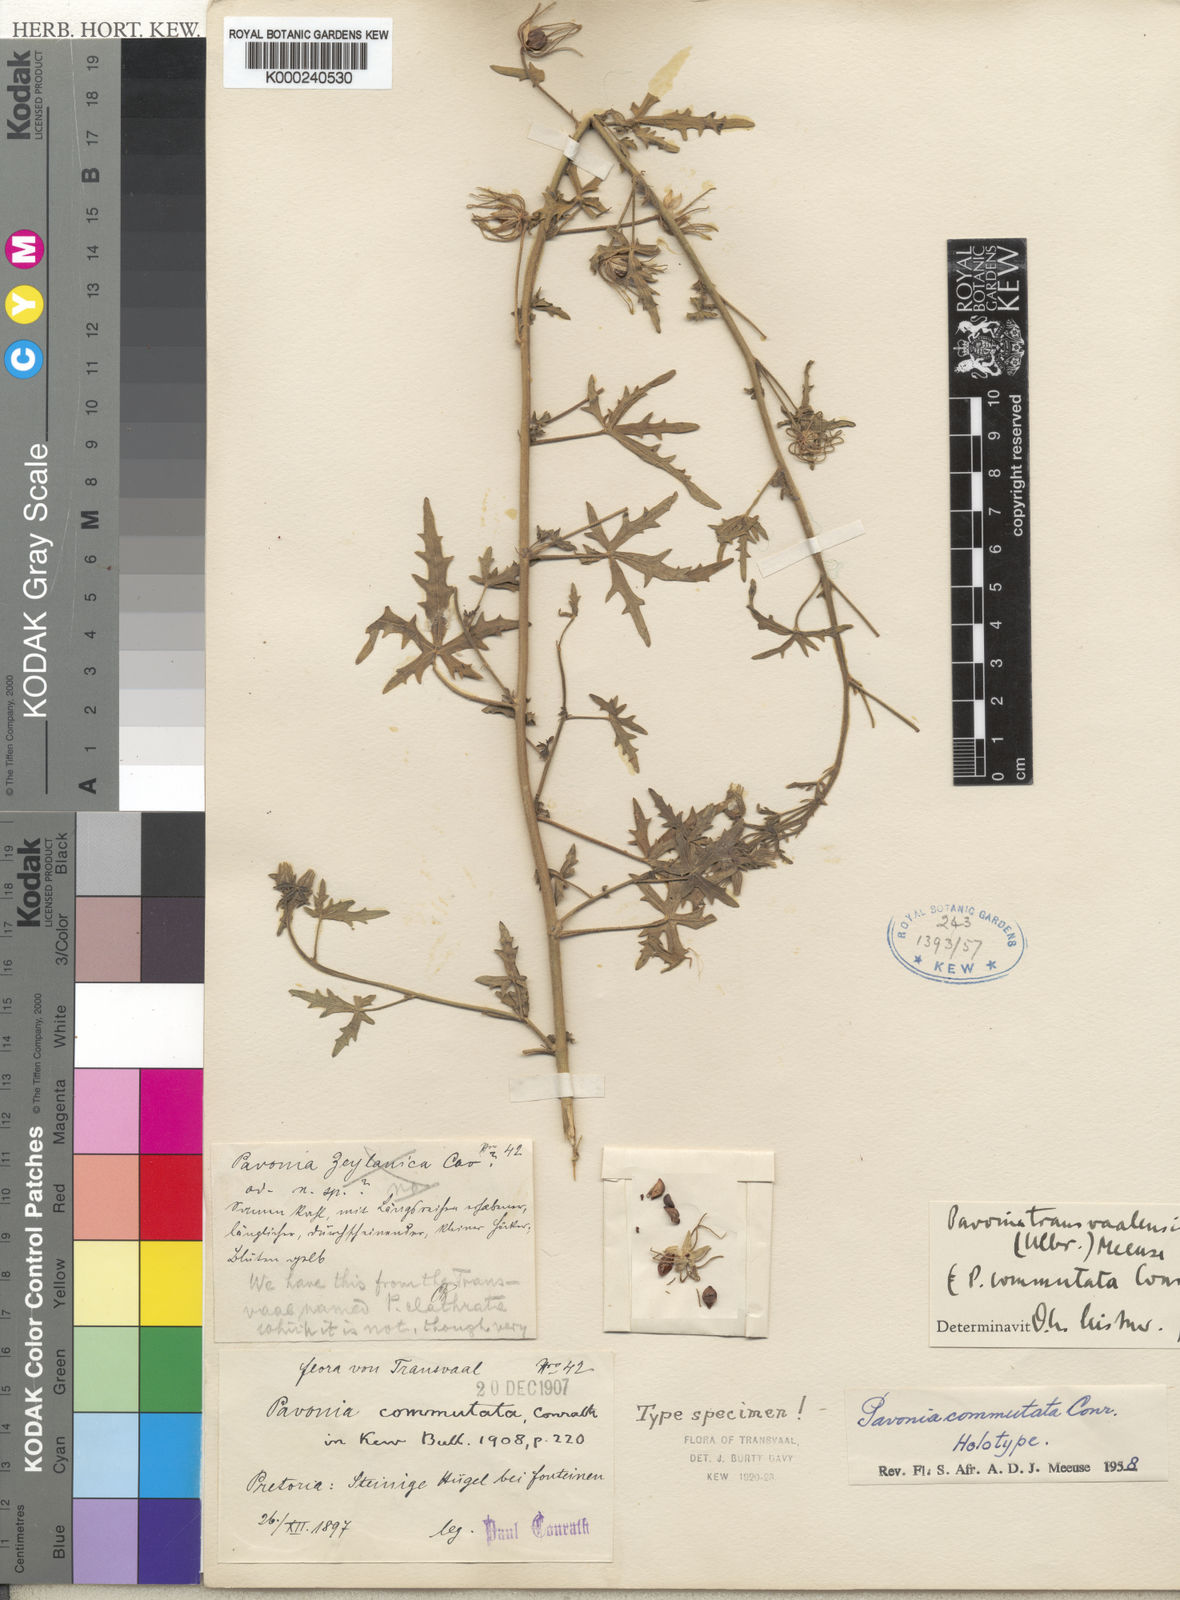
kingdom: Plantae
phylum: Tracheophyta
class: Magnoliopsida
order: Malvales
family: Malvaceae
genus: Pavonia
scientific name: Pavonia transvaalensis
